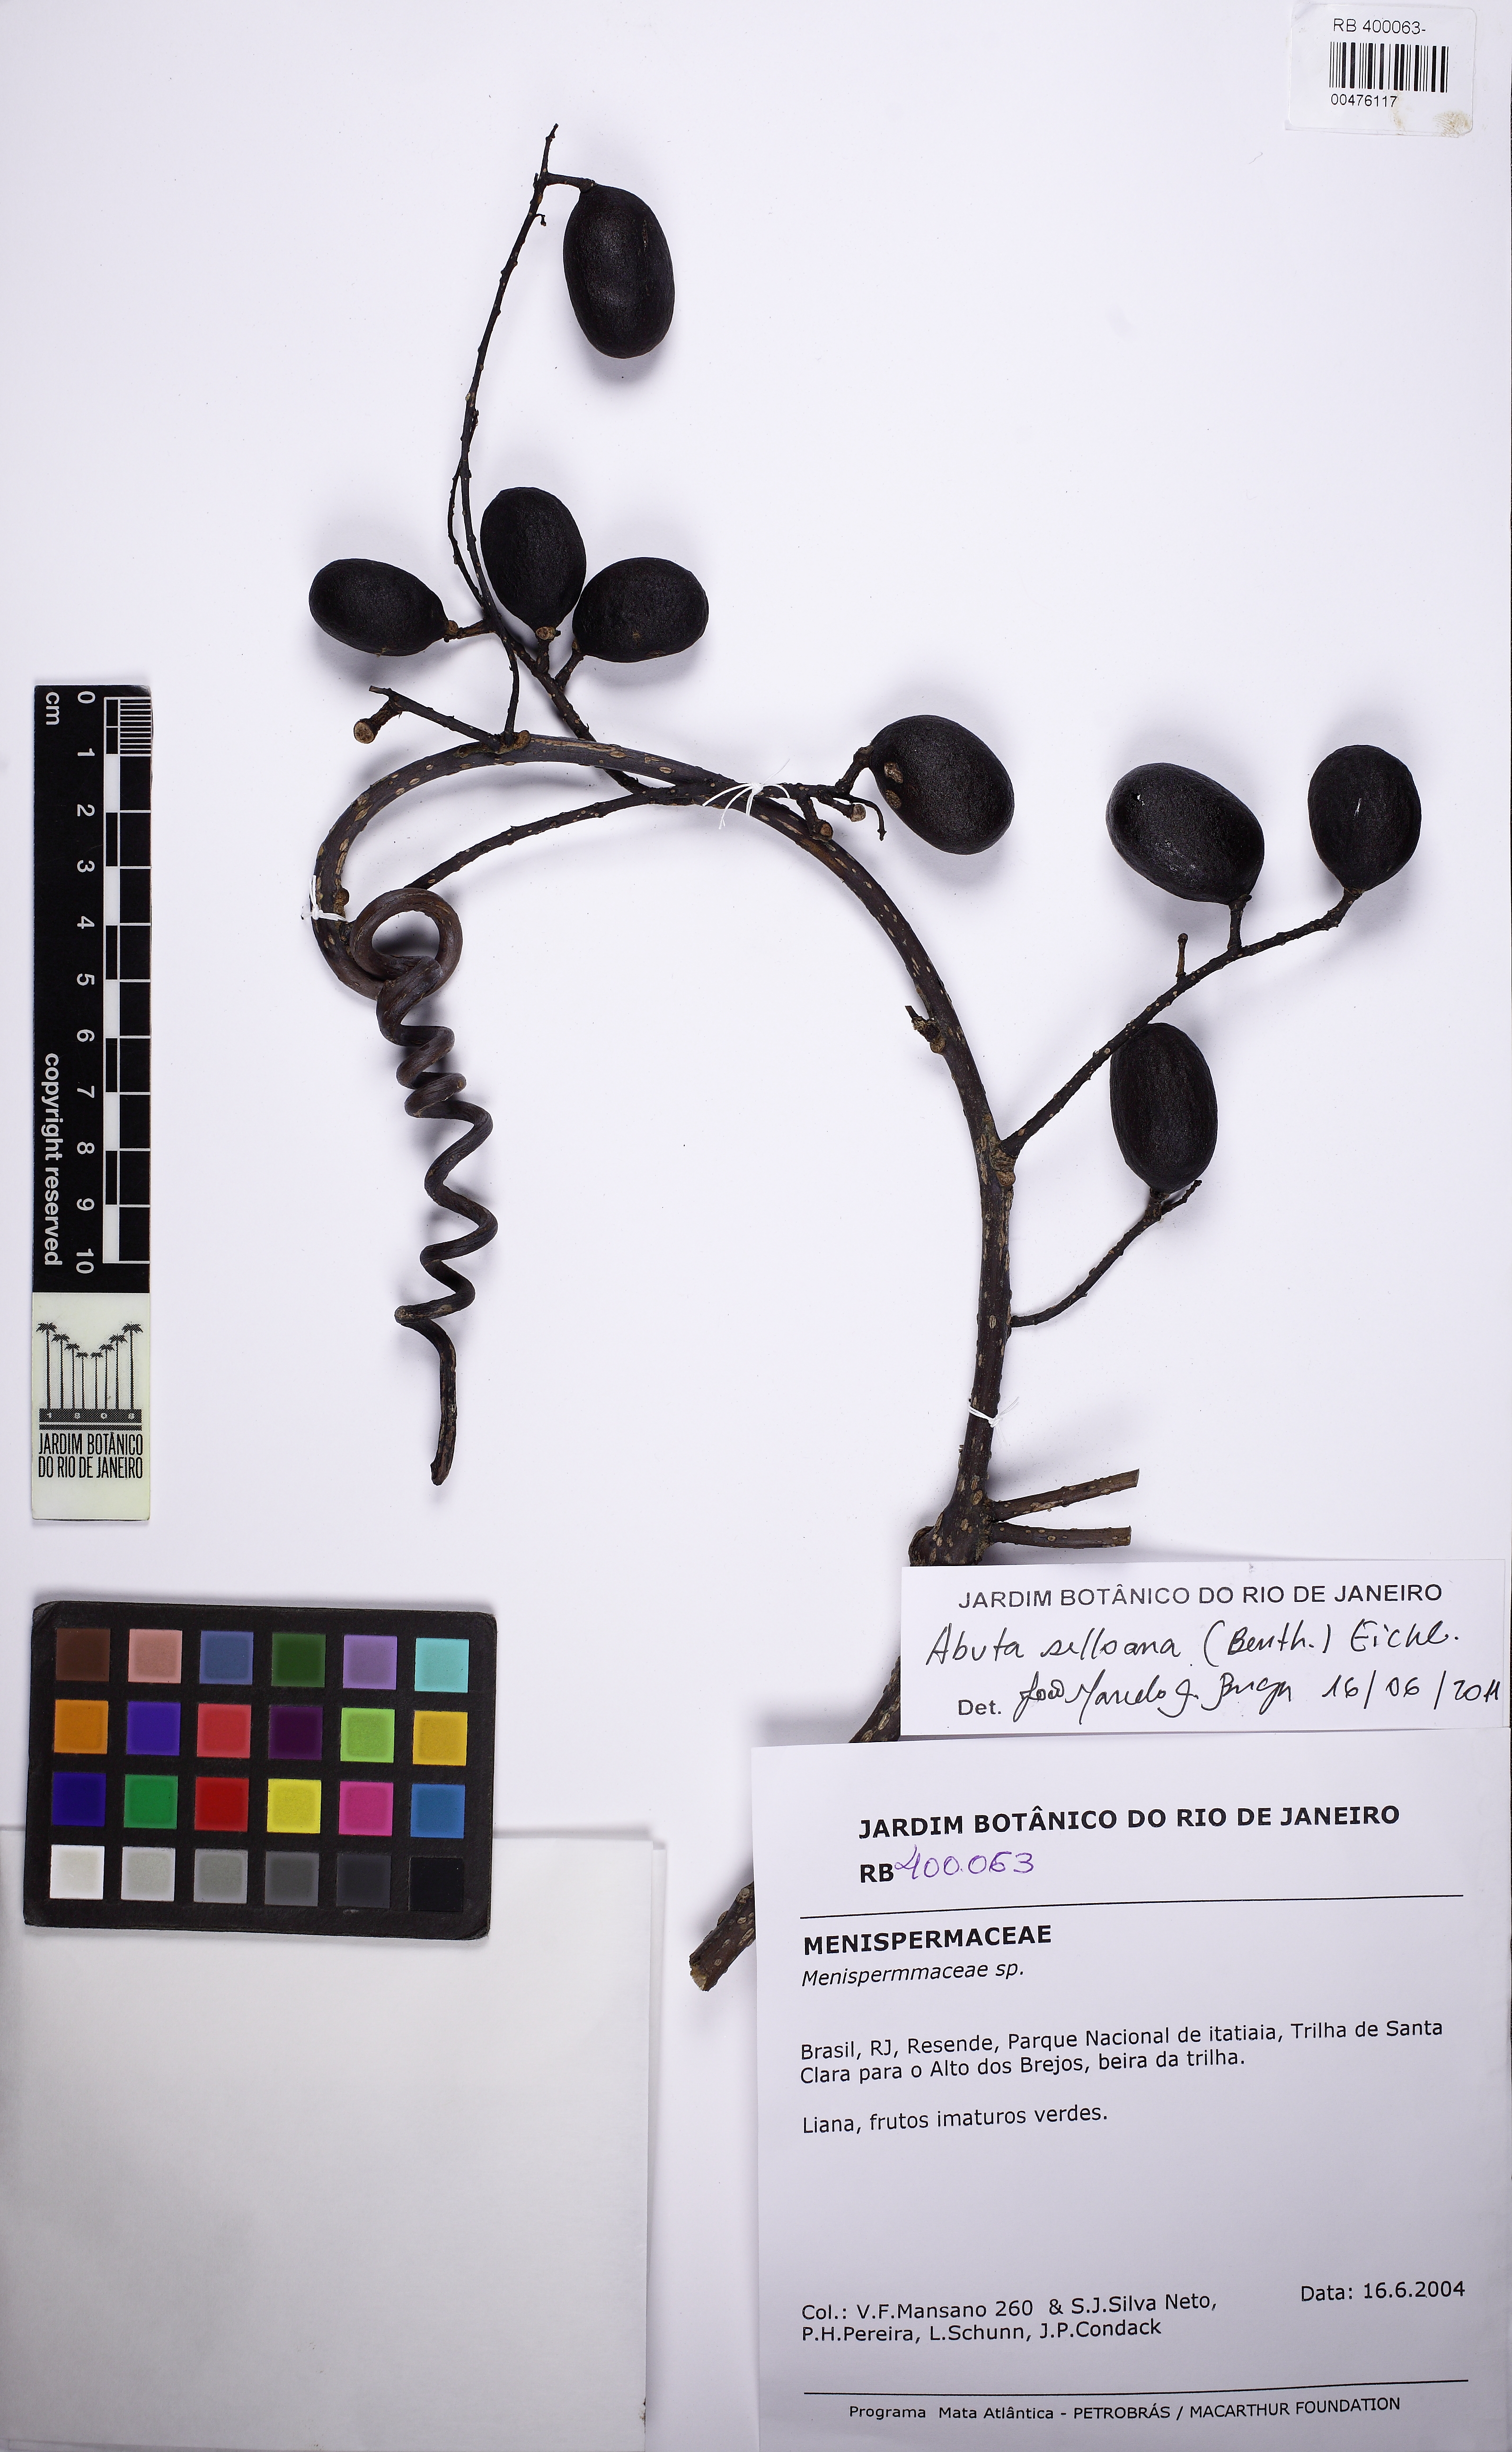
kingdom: Plantae
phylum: Tracheophyta
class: Magnoliopsida
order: Ranunculales
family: Menispermaceae
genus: Abuta
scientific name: Abuta selloana
